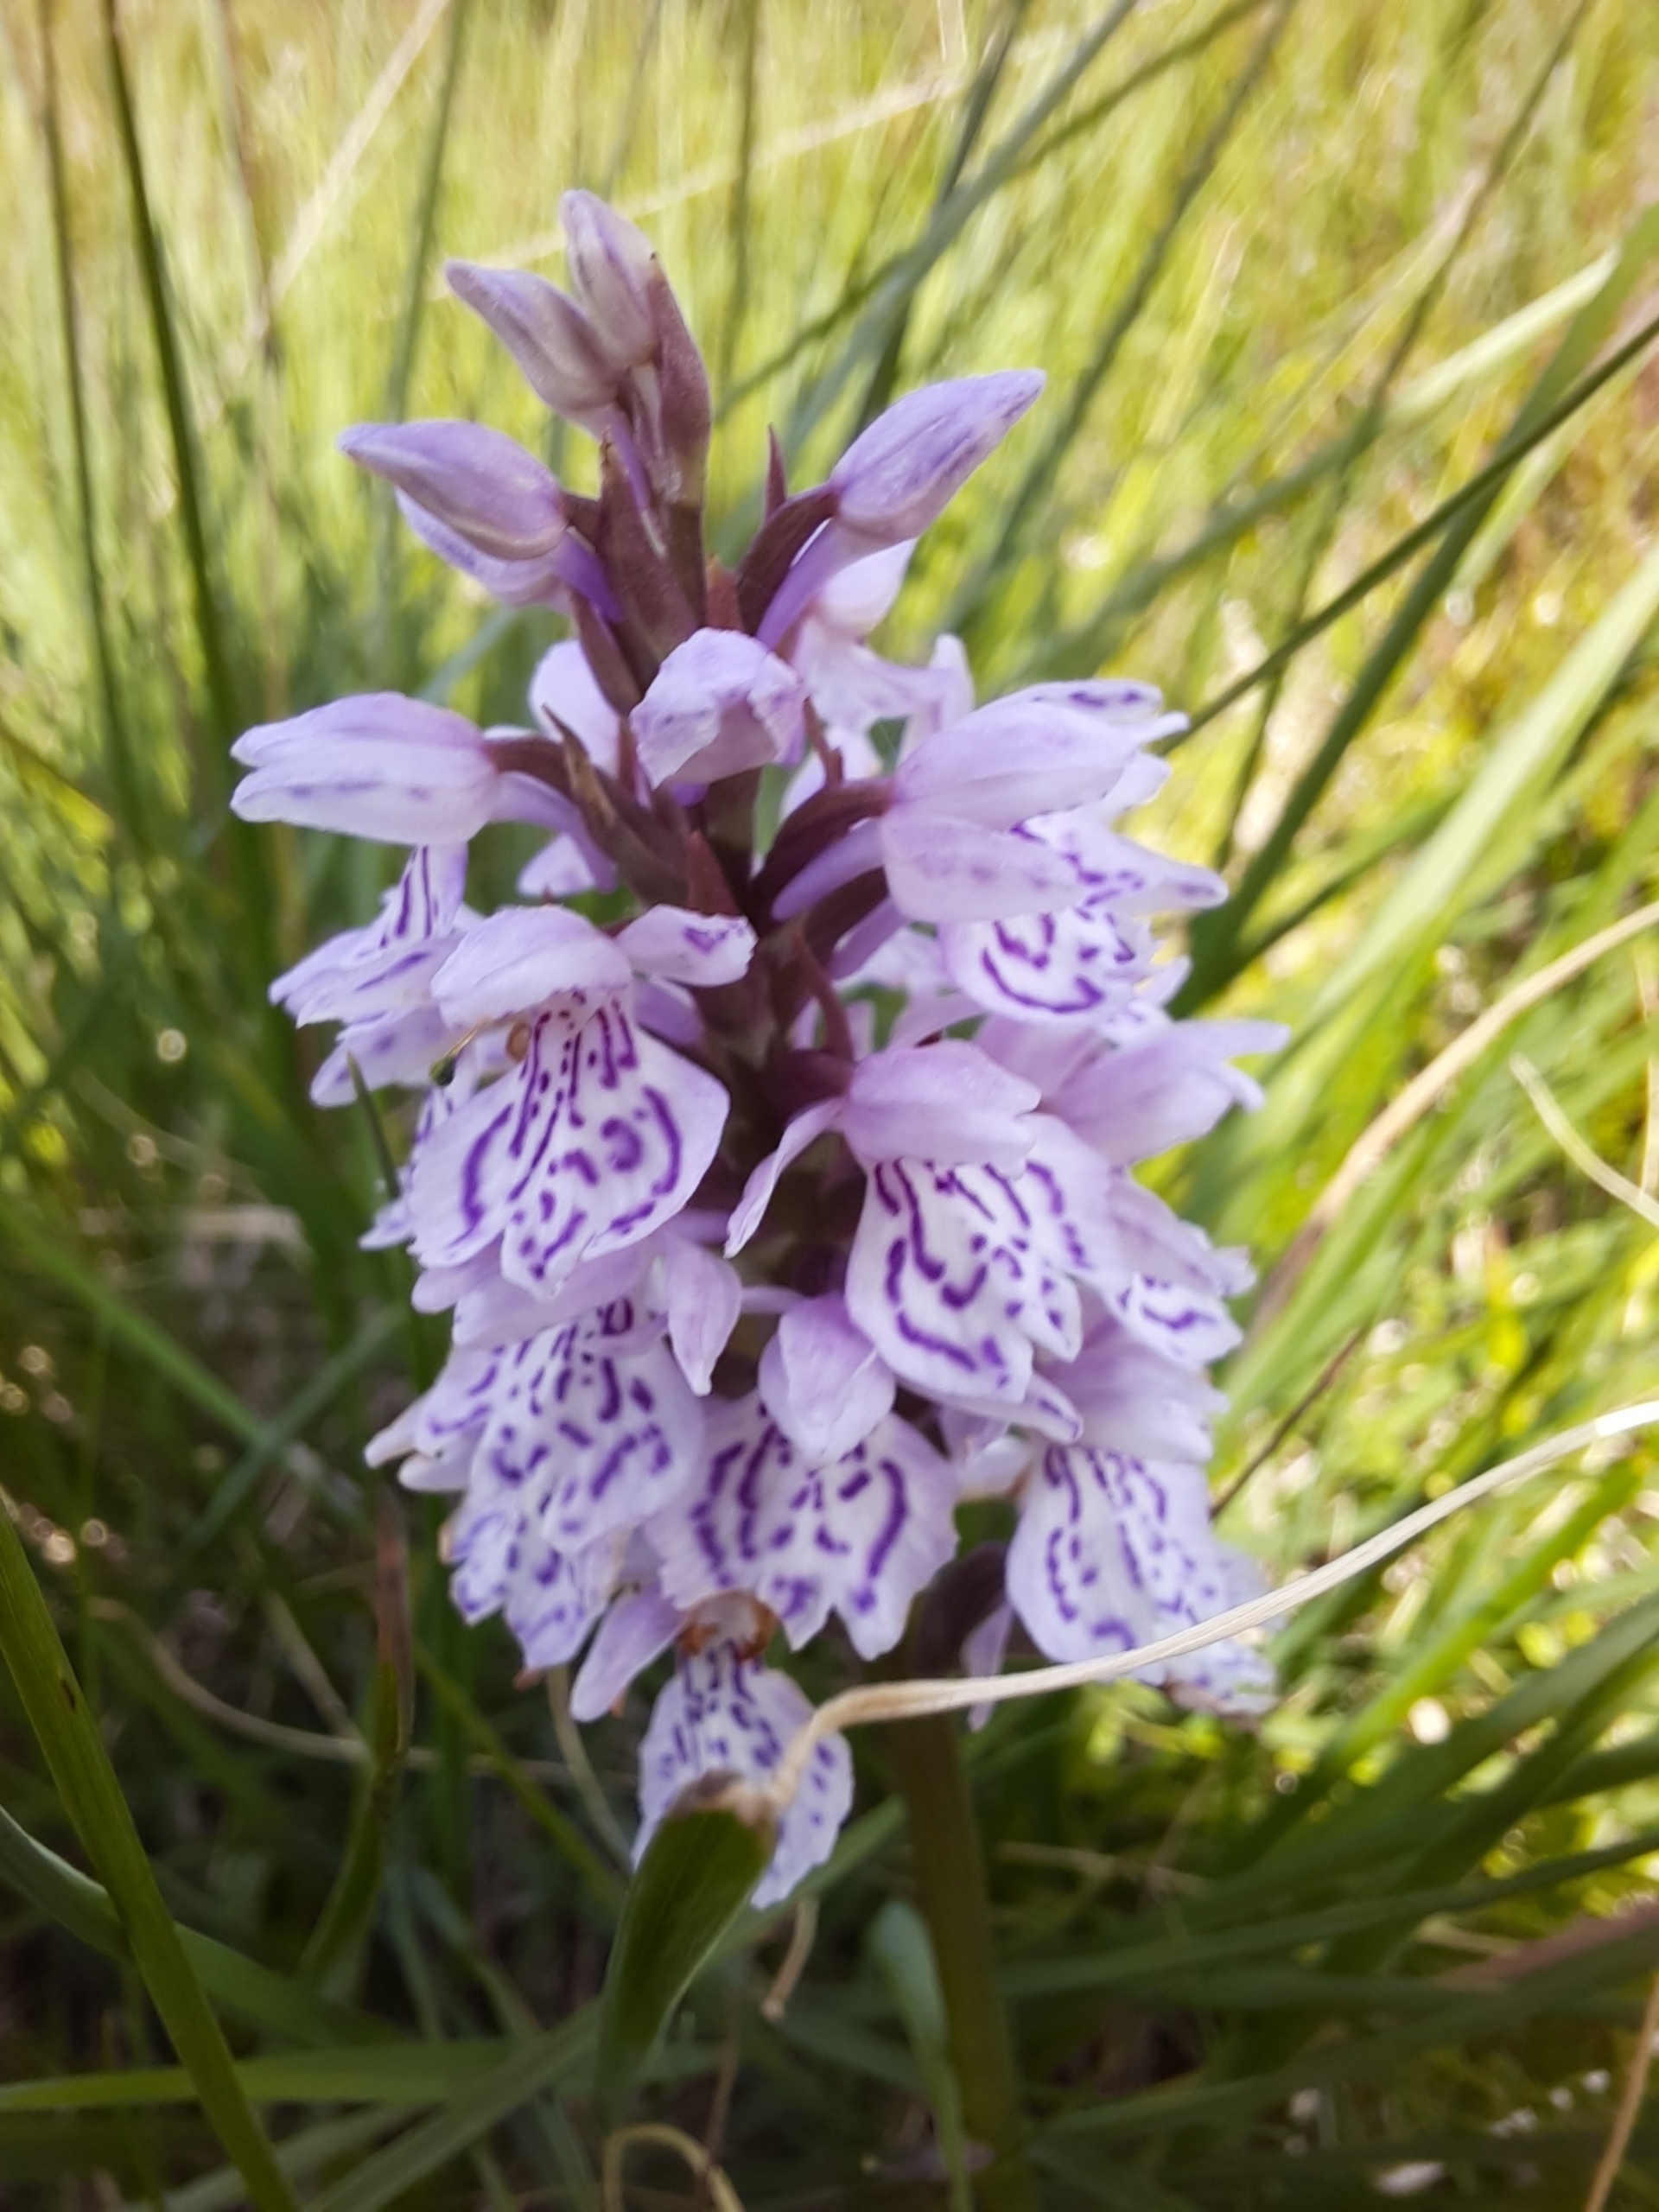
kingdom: Plantae
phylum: Tracheophyta
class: Liliopsida
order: Asparagales
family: Orchidaceae
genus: Dactylorhiza
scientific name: Dactylorhiza maculata
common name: Plettet gøgeurt
